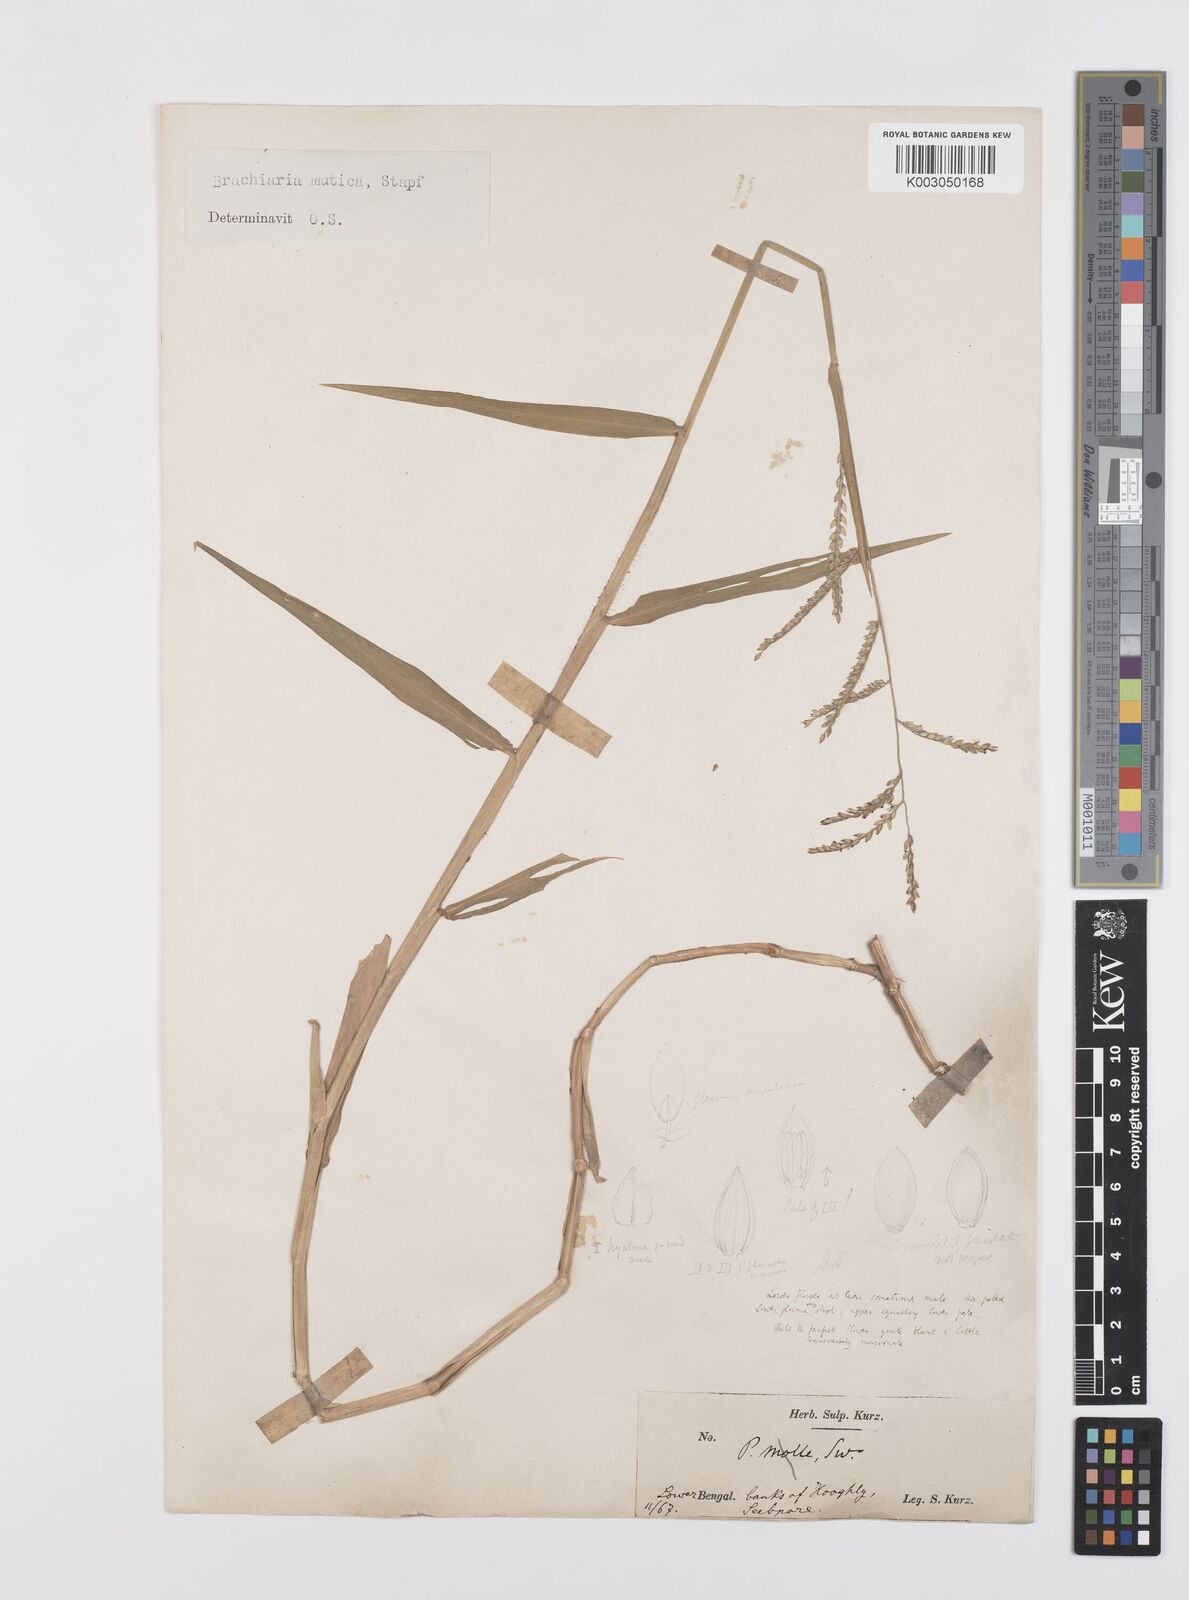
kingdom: Plantae
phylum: Tracheophyta
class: Liliopsida
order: Poales
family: Poaceae
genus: Urochloa
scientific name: Urochloa mutica
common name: Para grass
